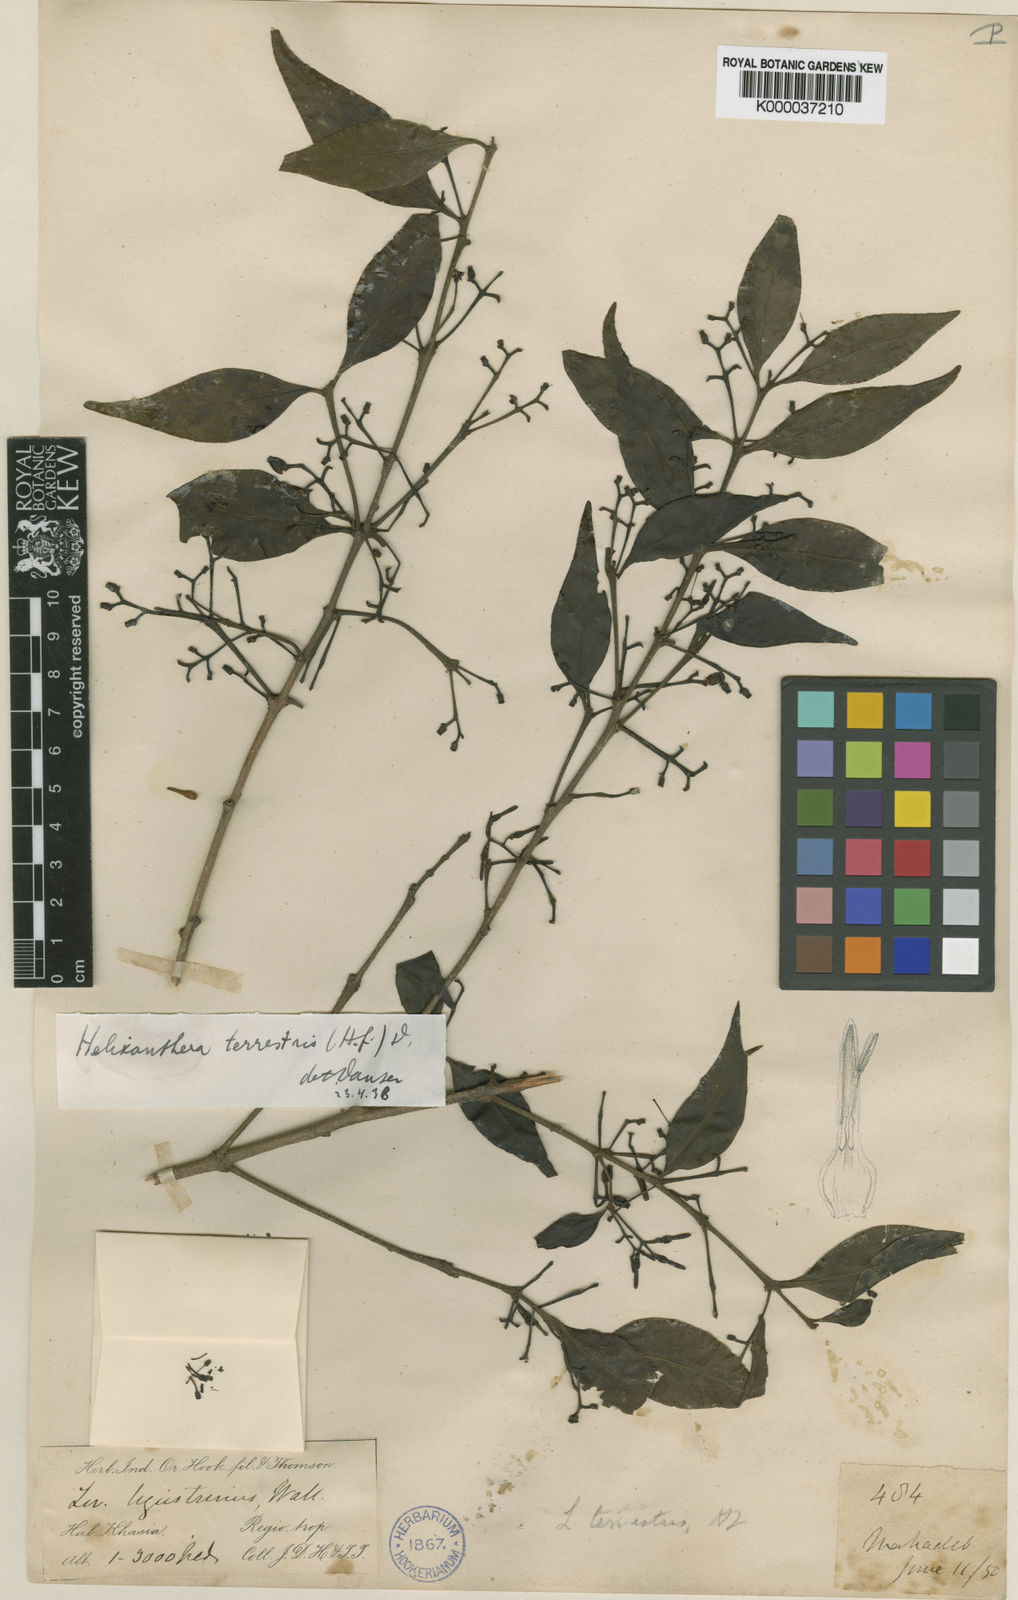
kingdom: Plantae
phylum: Tracheophyta
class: Magnoliopsida
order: Santalales
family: Loranthaceae
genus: Helixanthera
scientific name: Helixanthera ligustrina
